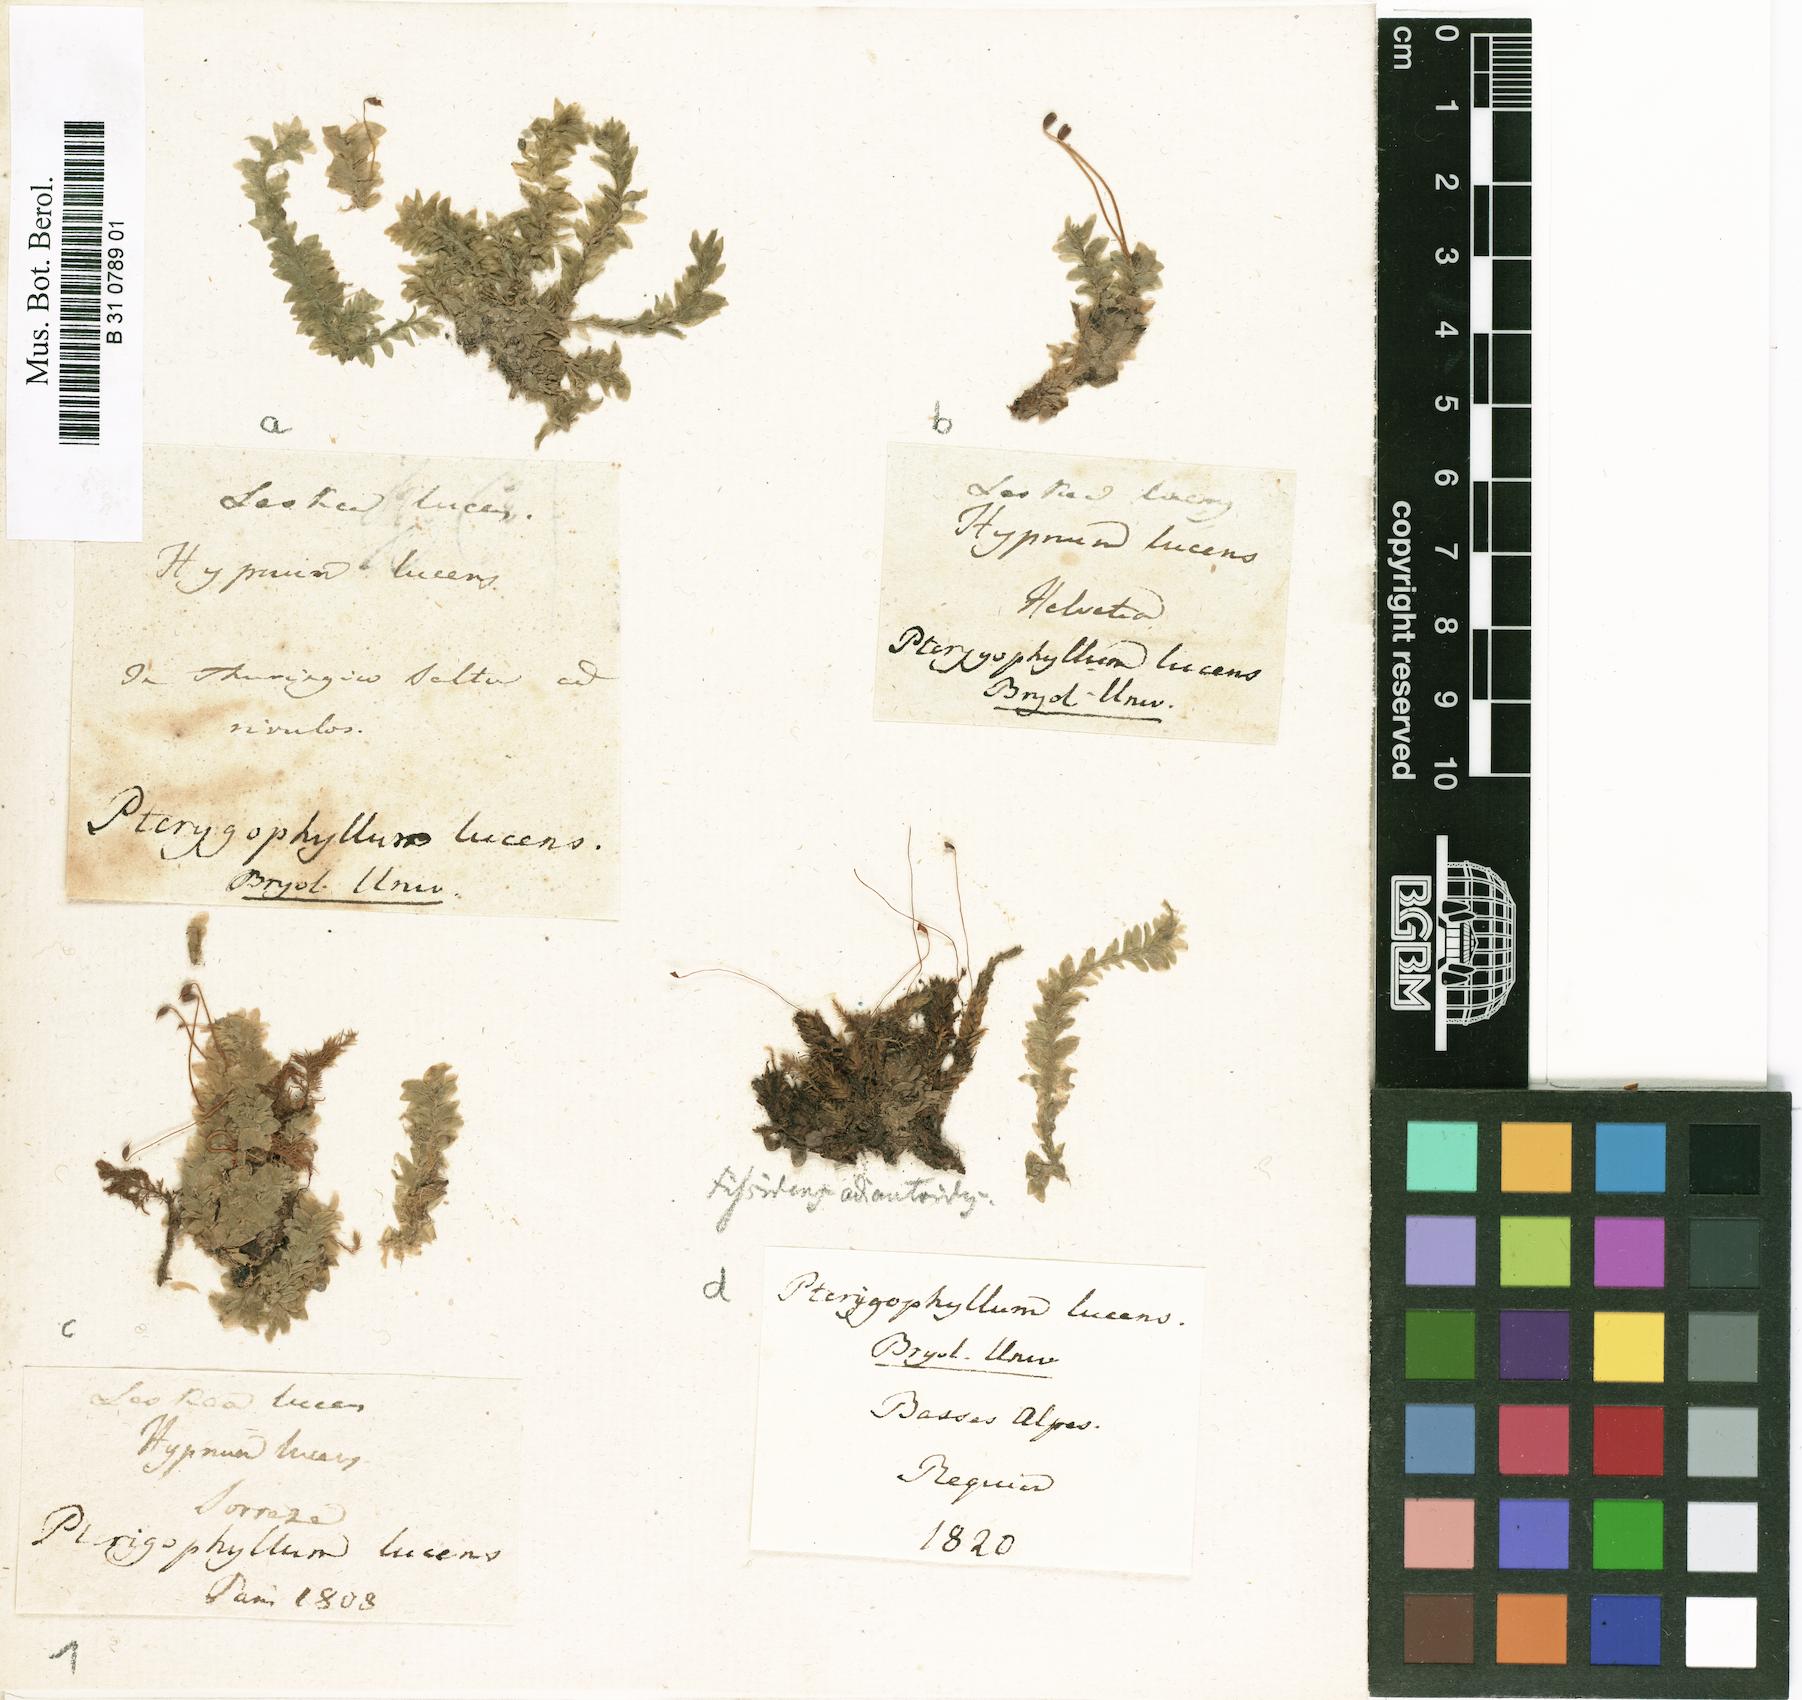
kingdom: Plantae
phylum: Bryophyta
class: Bryopsida
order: Hookeriales
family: Hookeriaceae
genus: Hookeria
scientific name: Hookeria lucens
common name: Shining hookeria
